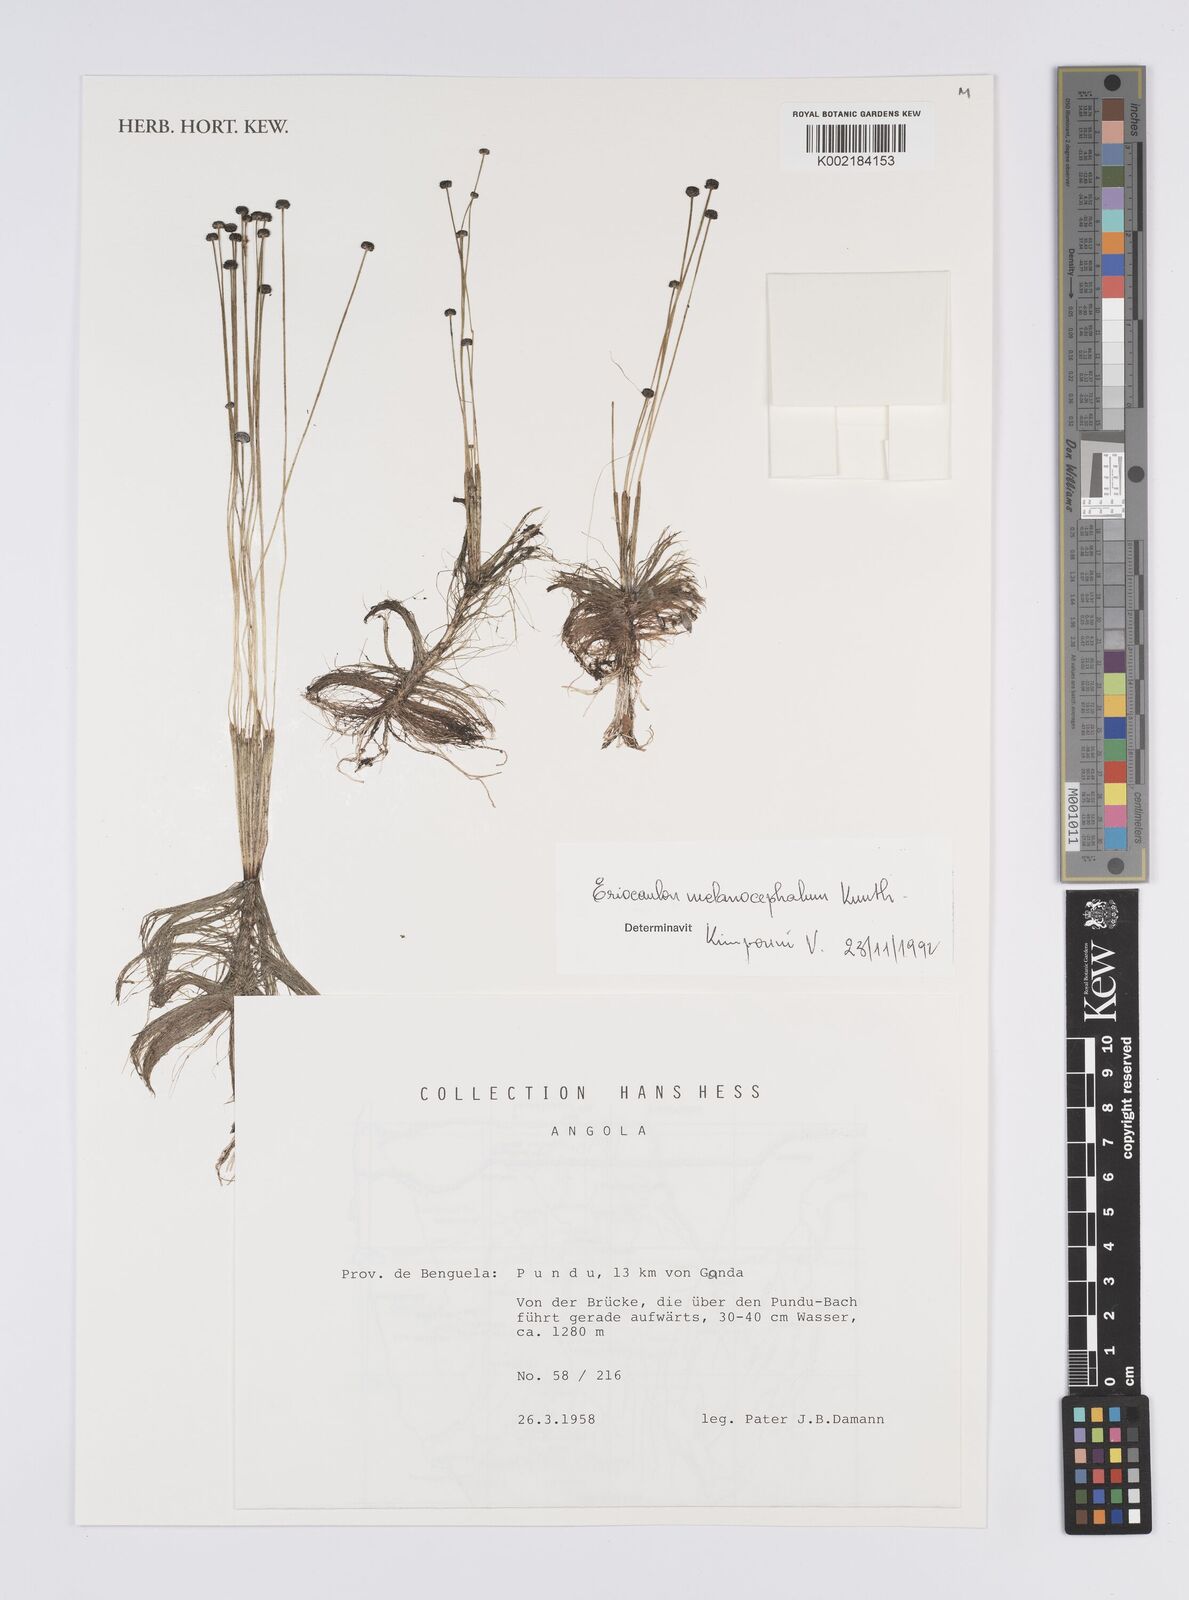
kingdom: Plantae
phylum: Tracheophyta
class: Liliopsida
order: Poales
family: Eriocaulaceae
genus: Eriocaulon
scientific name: Eriocaulon setaceum
